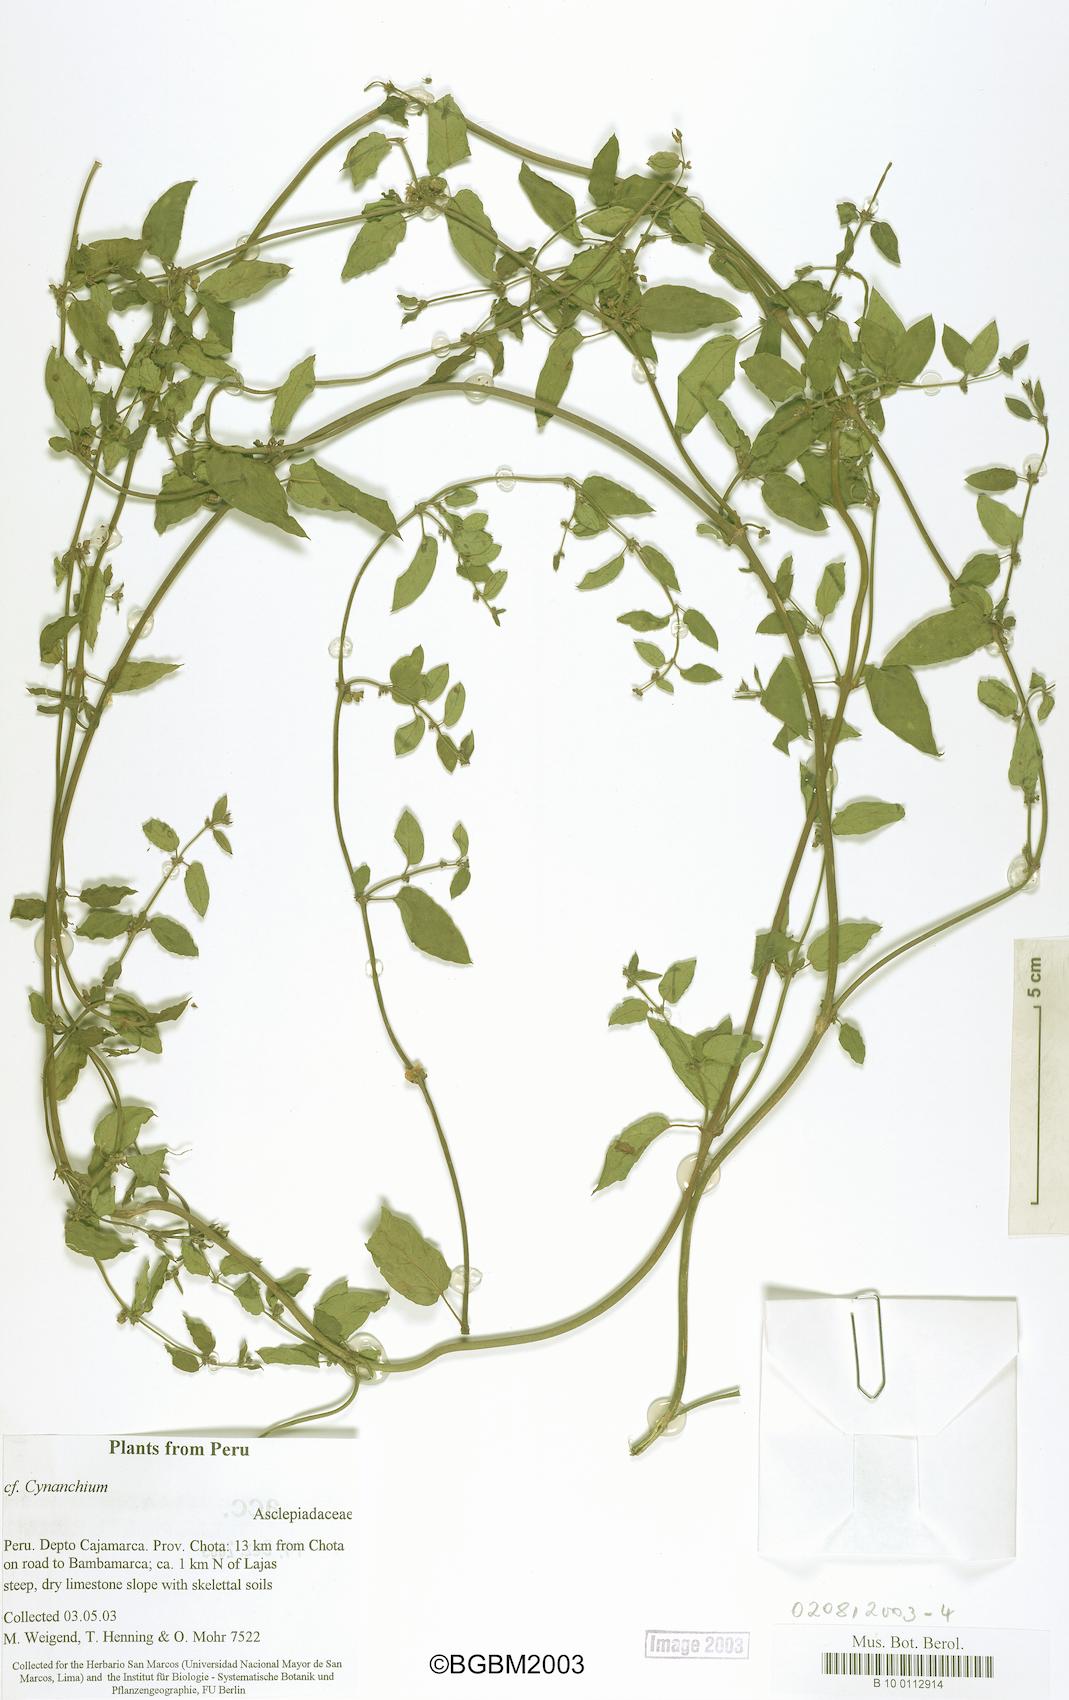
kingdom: Plantae
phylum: Tracheophyta
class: Magnoliopsida
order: Gentianales
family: Apocynaceae
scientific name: Apocynaceae
